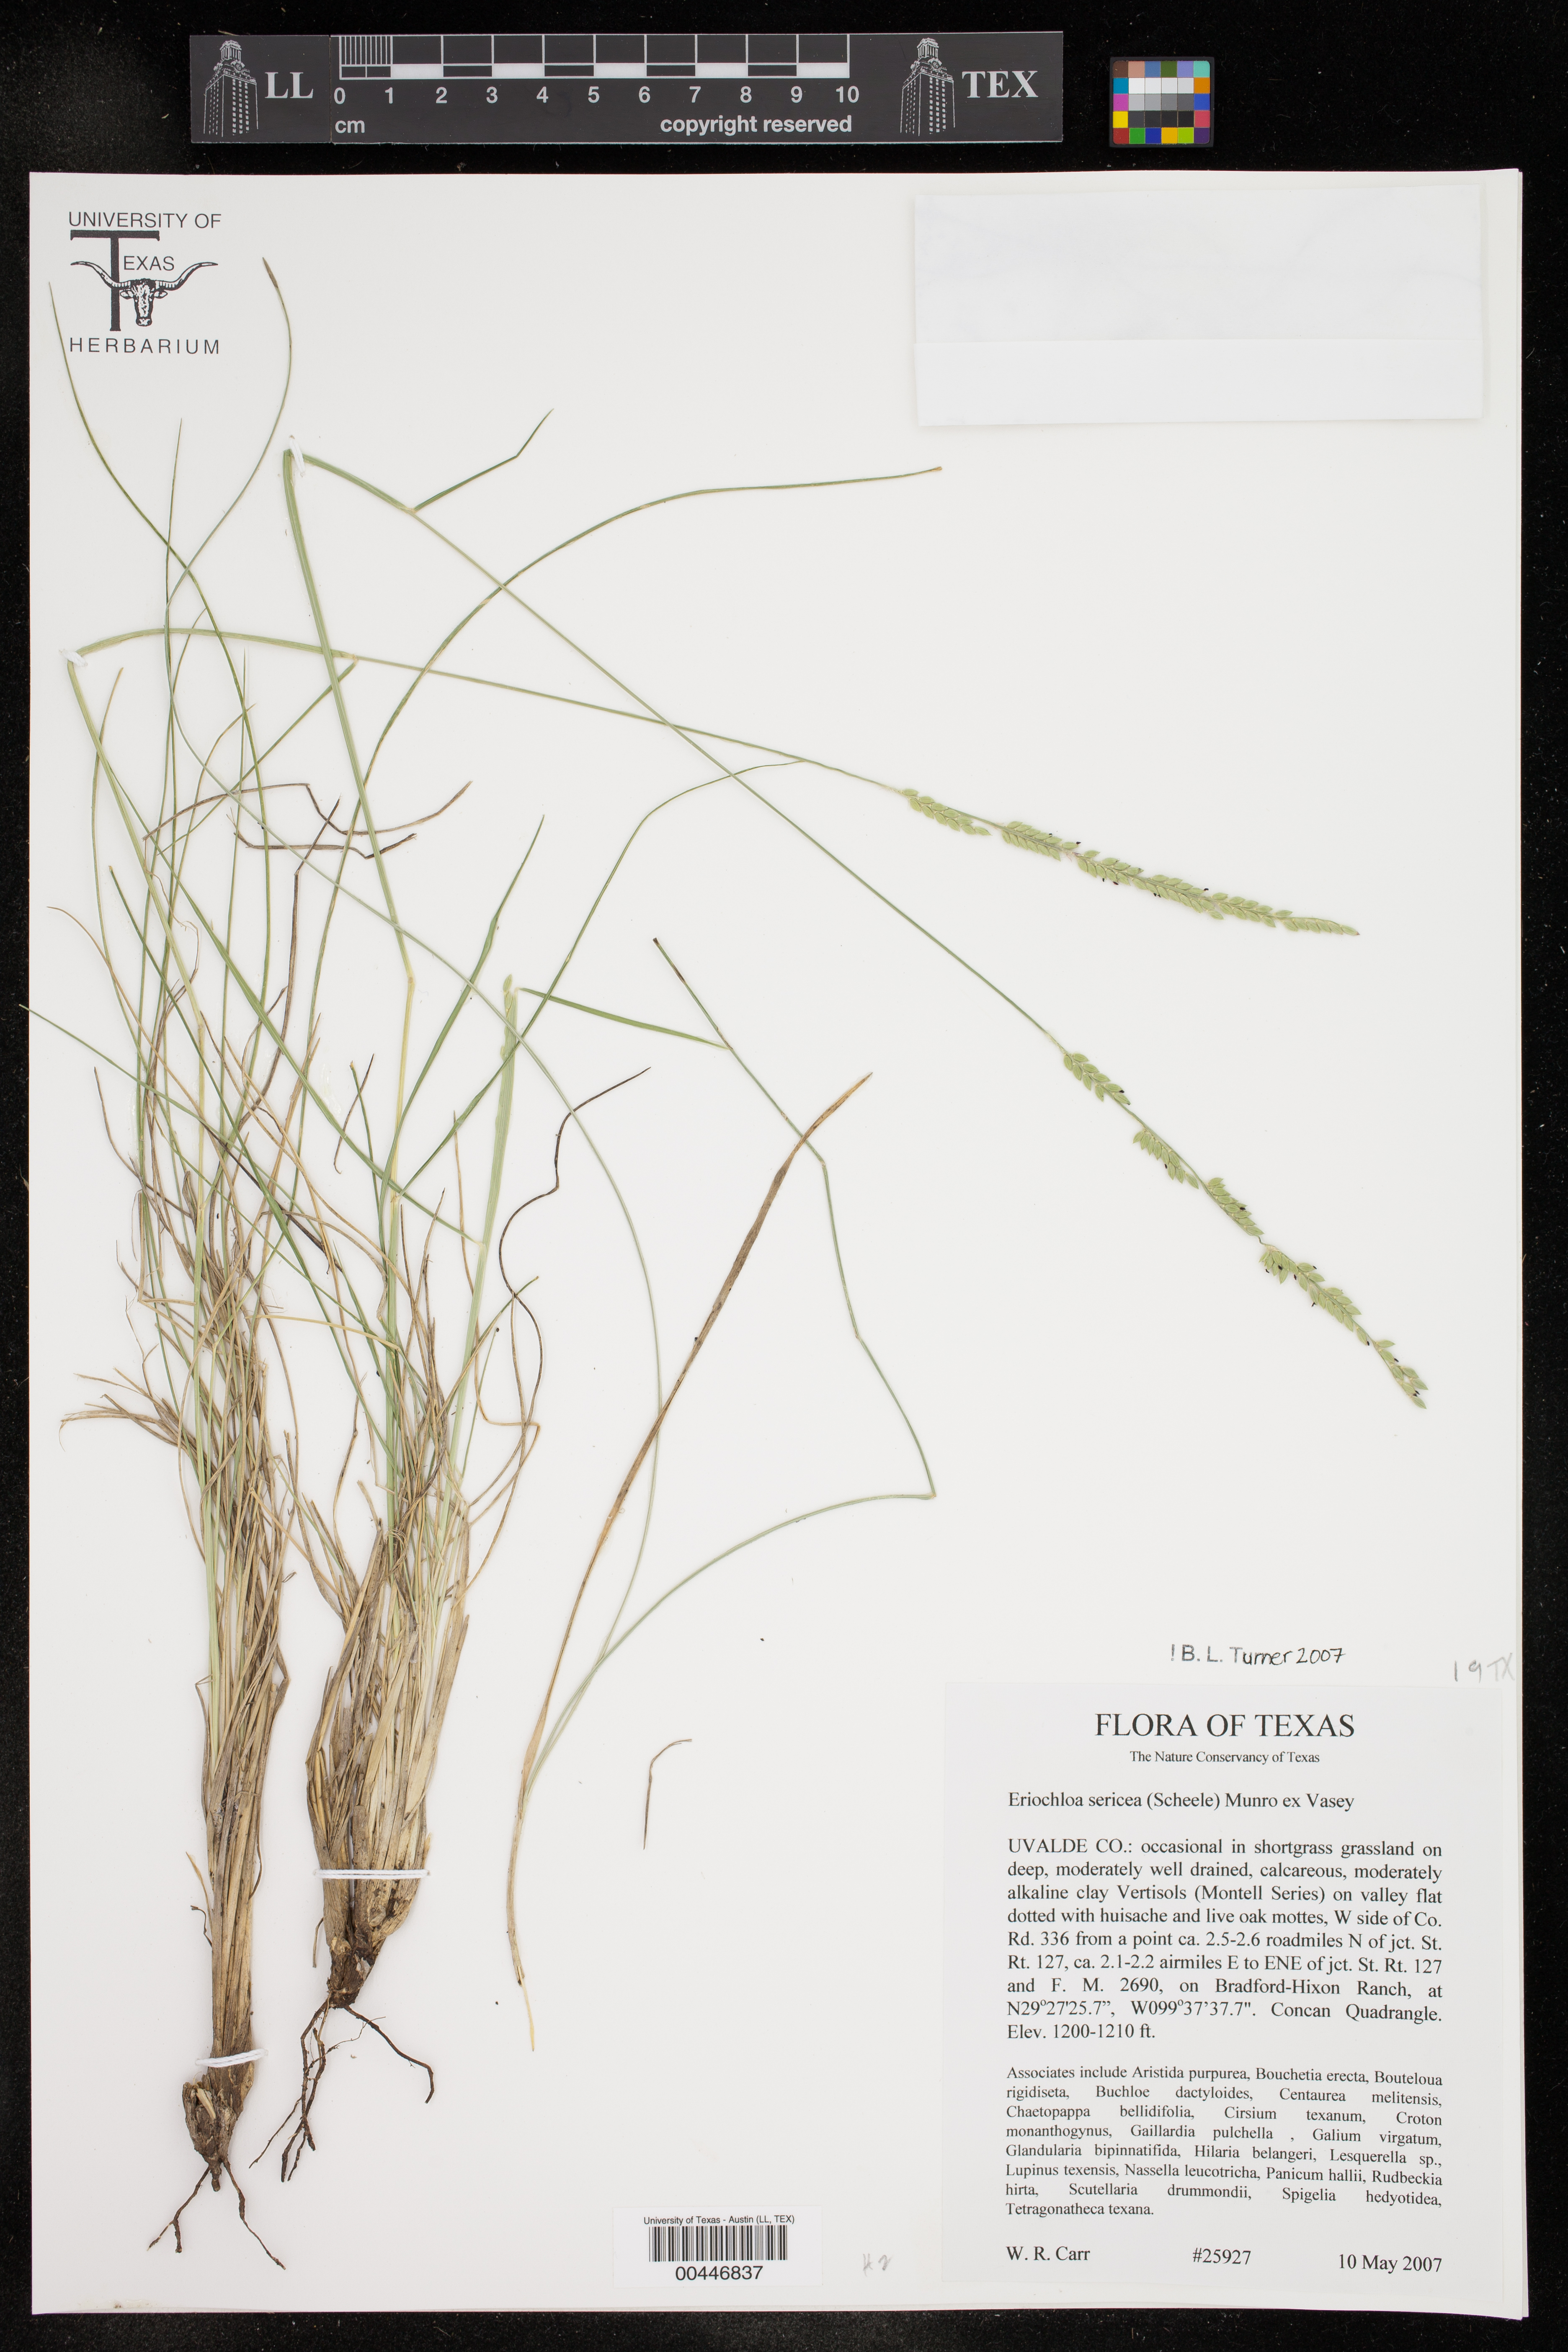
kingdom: Plantae
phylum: Tracheophyta
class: Liliopsida
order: Poales
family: Poaceae
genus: Eriochloa
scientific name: Eriochloa sericea
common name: Texas cup grass
